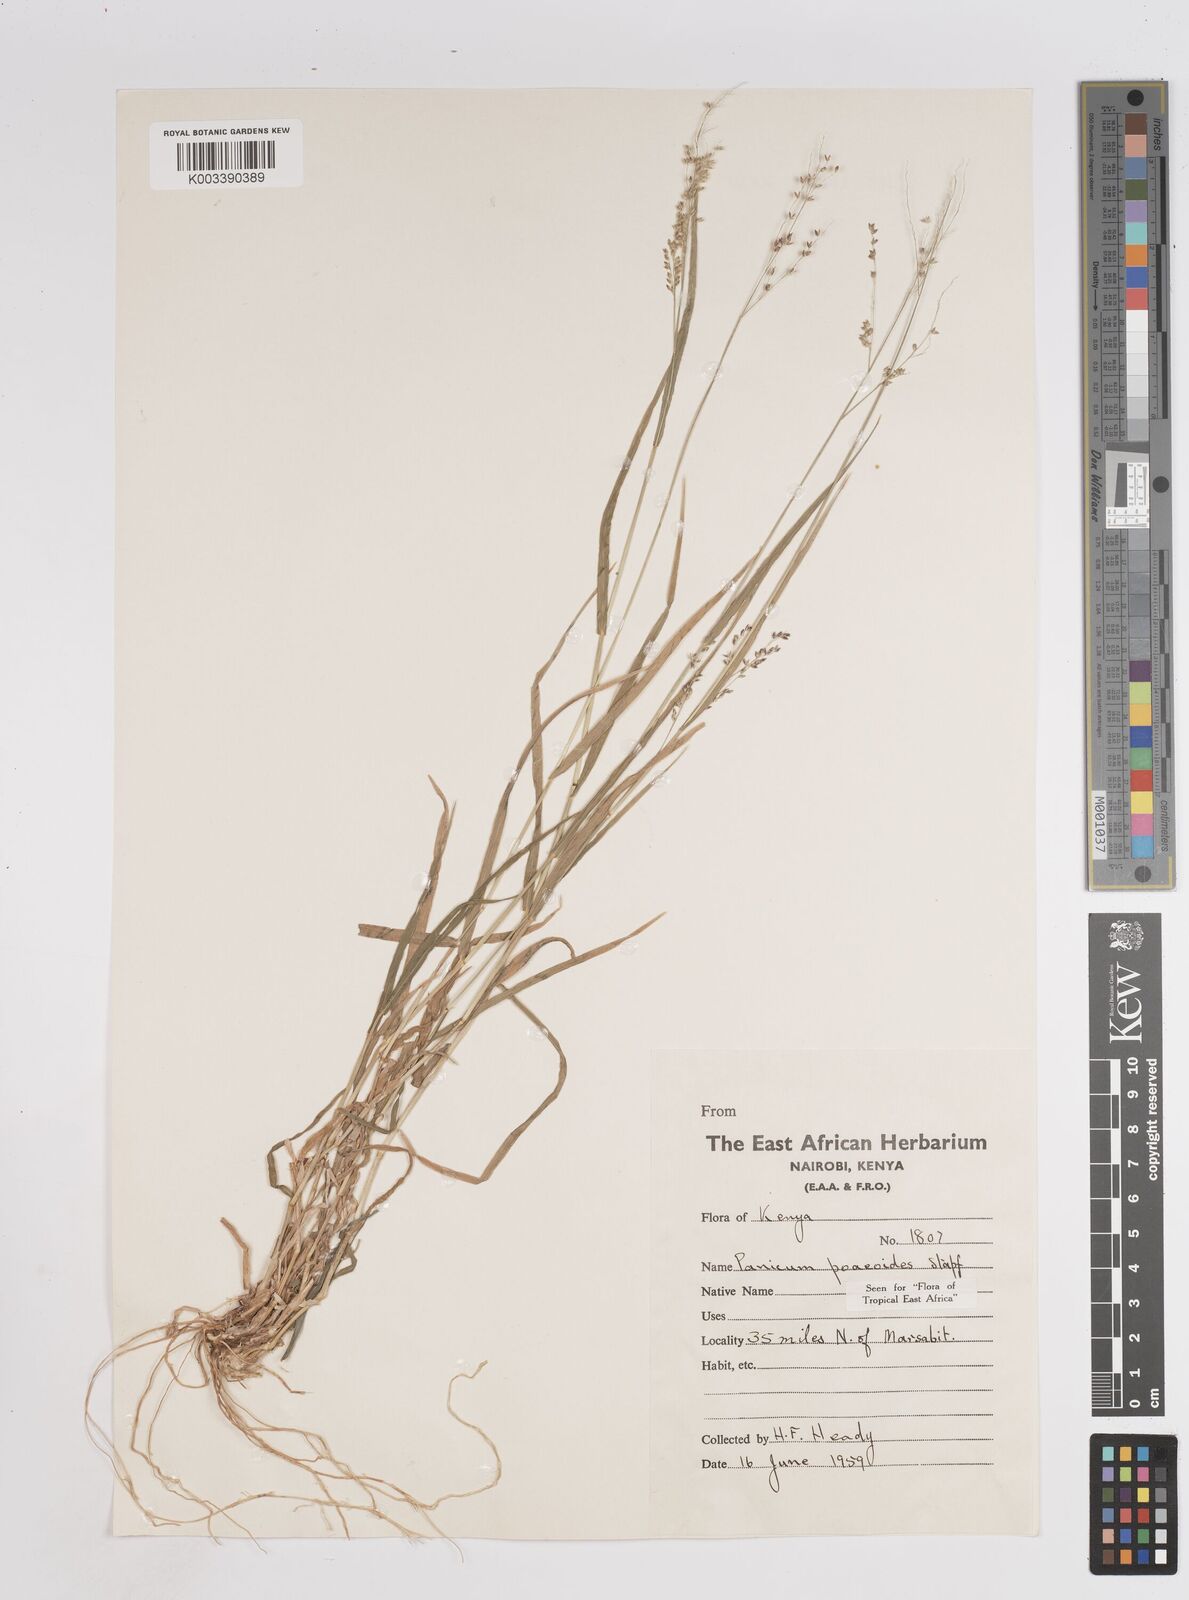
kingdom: Plantae
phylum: Tracheophyta
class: Liliopsida
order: Poales
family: Poaceae
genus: Panicum
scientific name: Panicum
